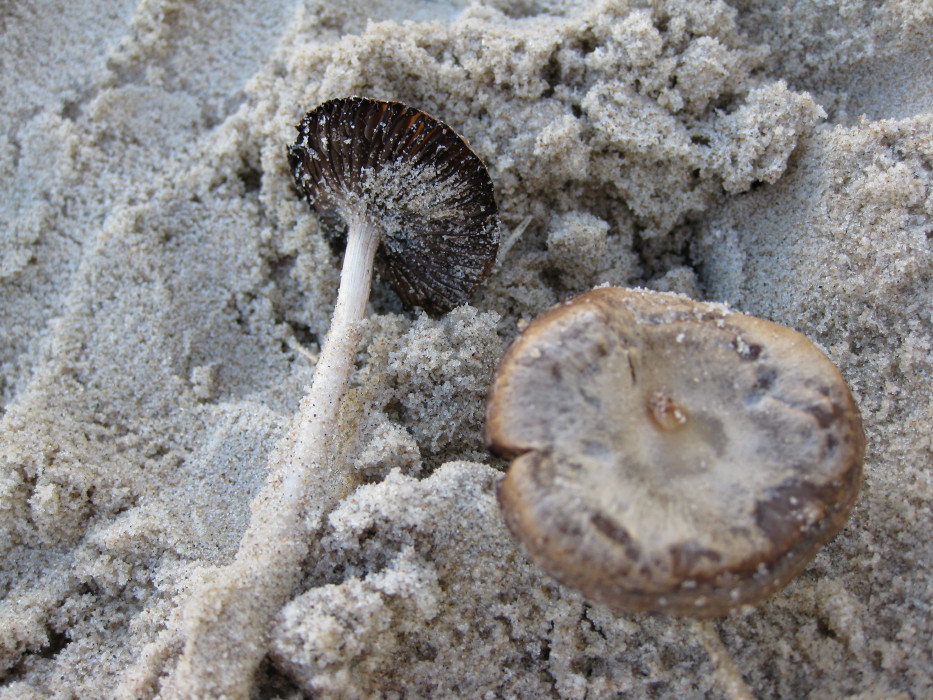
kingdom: Fungi
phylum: Basidiomycota
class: Agaricomycetes
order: Agaricales
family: Psathyrellaceae
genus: Psathyrella
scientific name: Psathyrella ammophila
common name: klit-mørkhat
